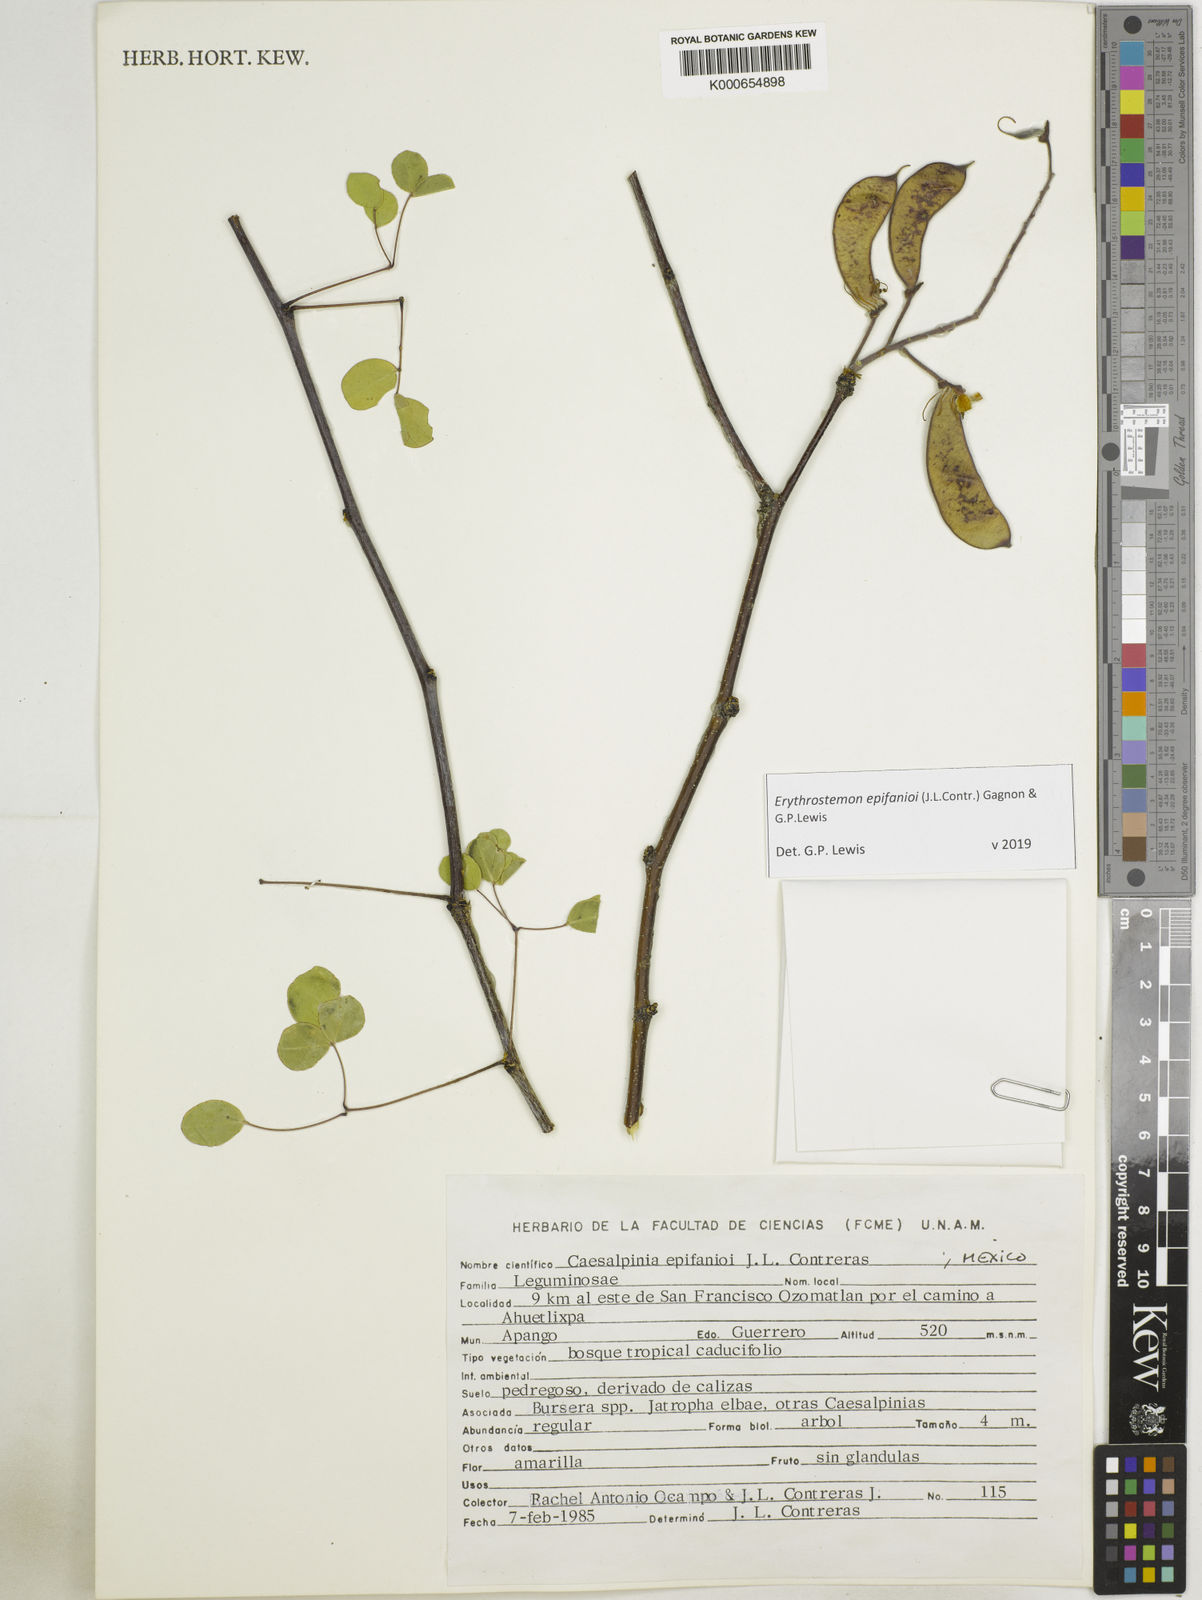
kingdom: Plantae
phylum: Tracheophyta
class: Magnoliopsida
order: Fabales
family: Fabaceae
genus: Erythrostemon
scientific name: Erythrostemon epifanioi
